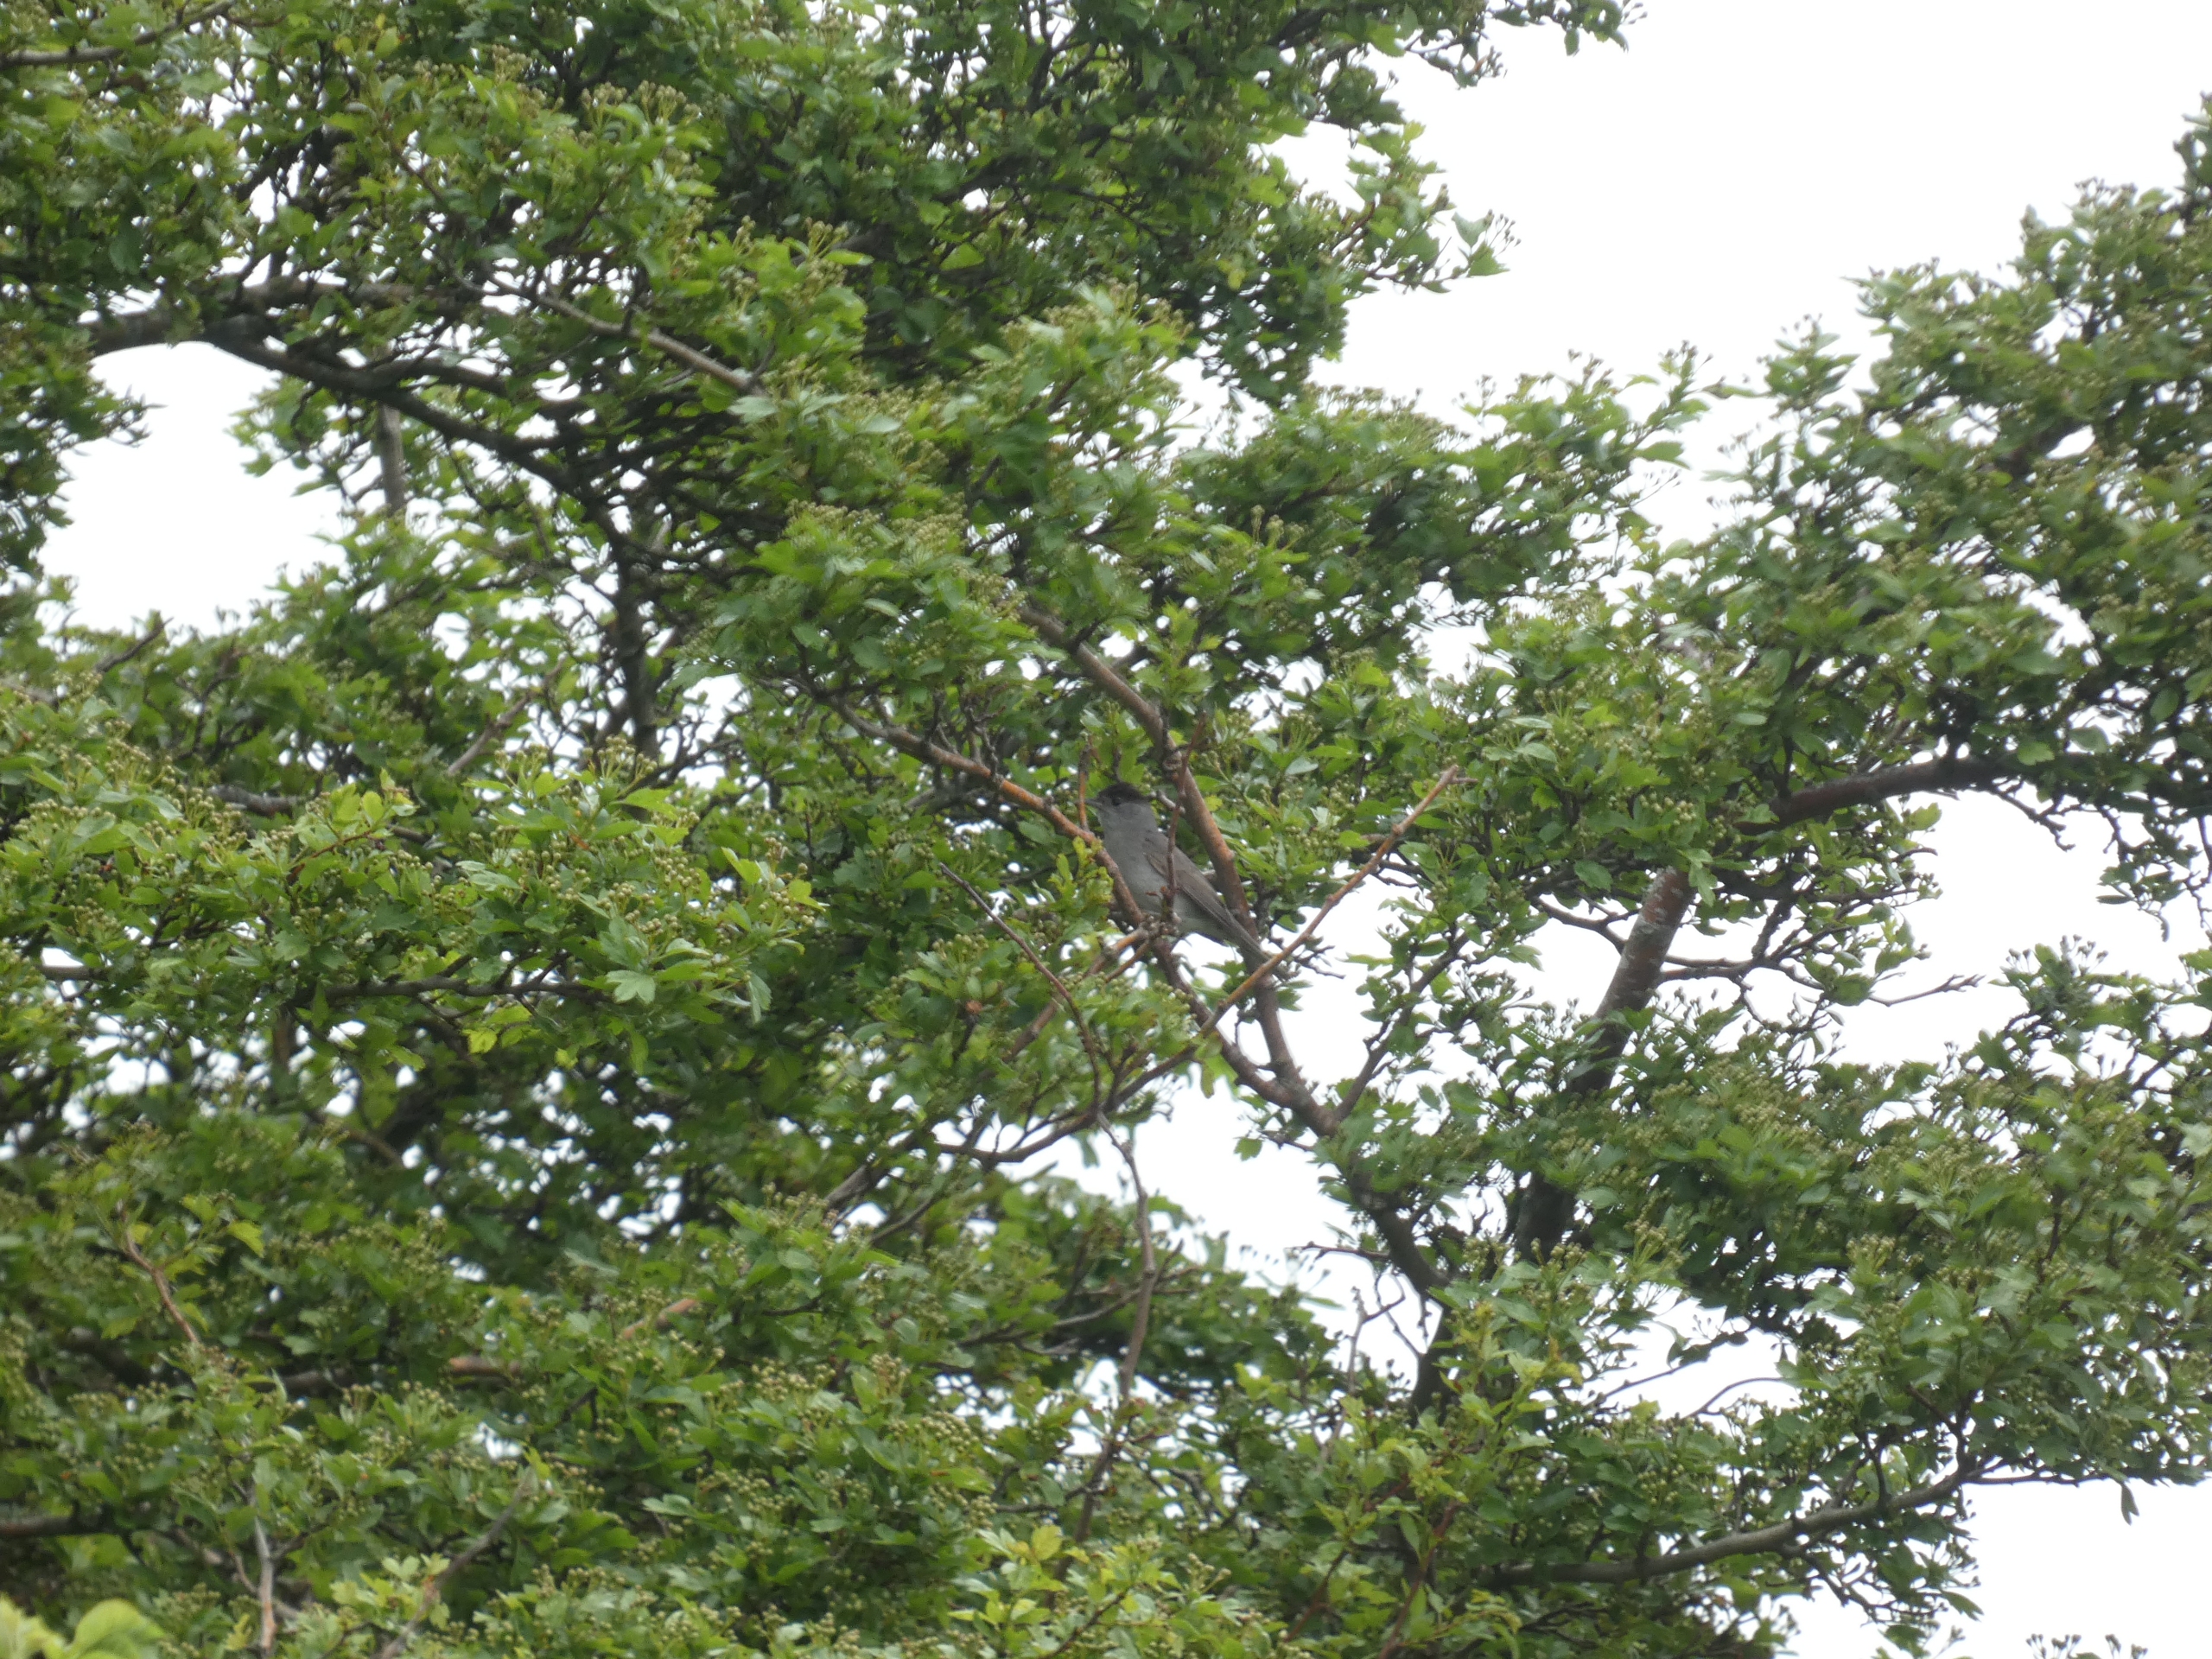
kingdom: Animalia
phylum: Chordata
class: Aves
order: Passeriformes
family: Sylviidae
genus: Sylvia
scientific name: Sylvia atricapilla
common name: Munk
